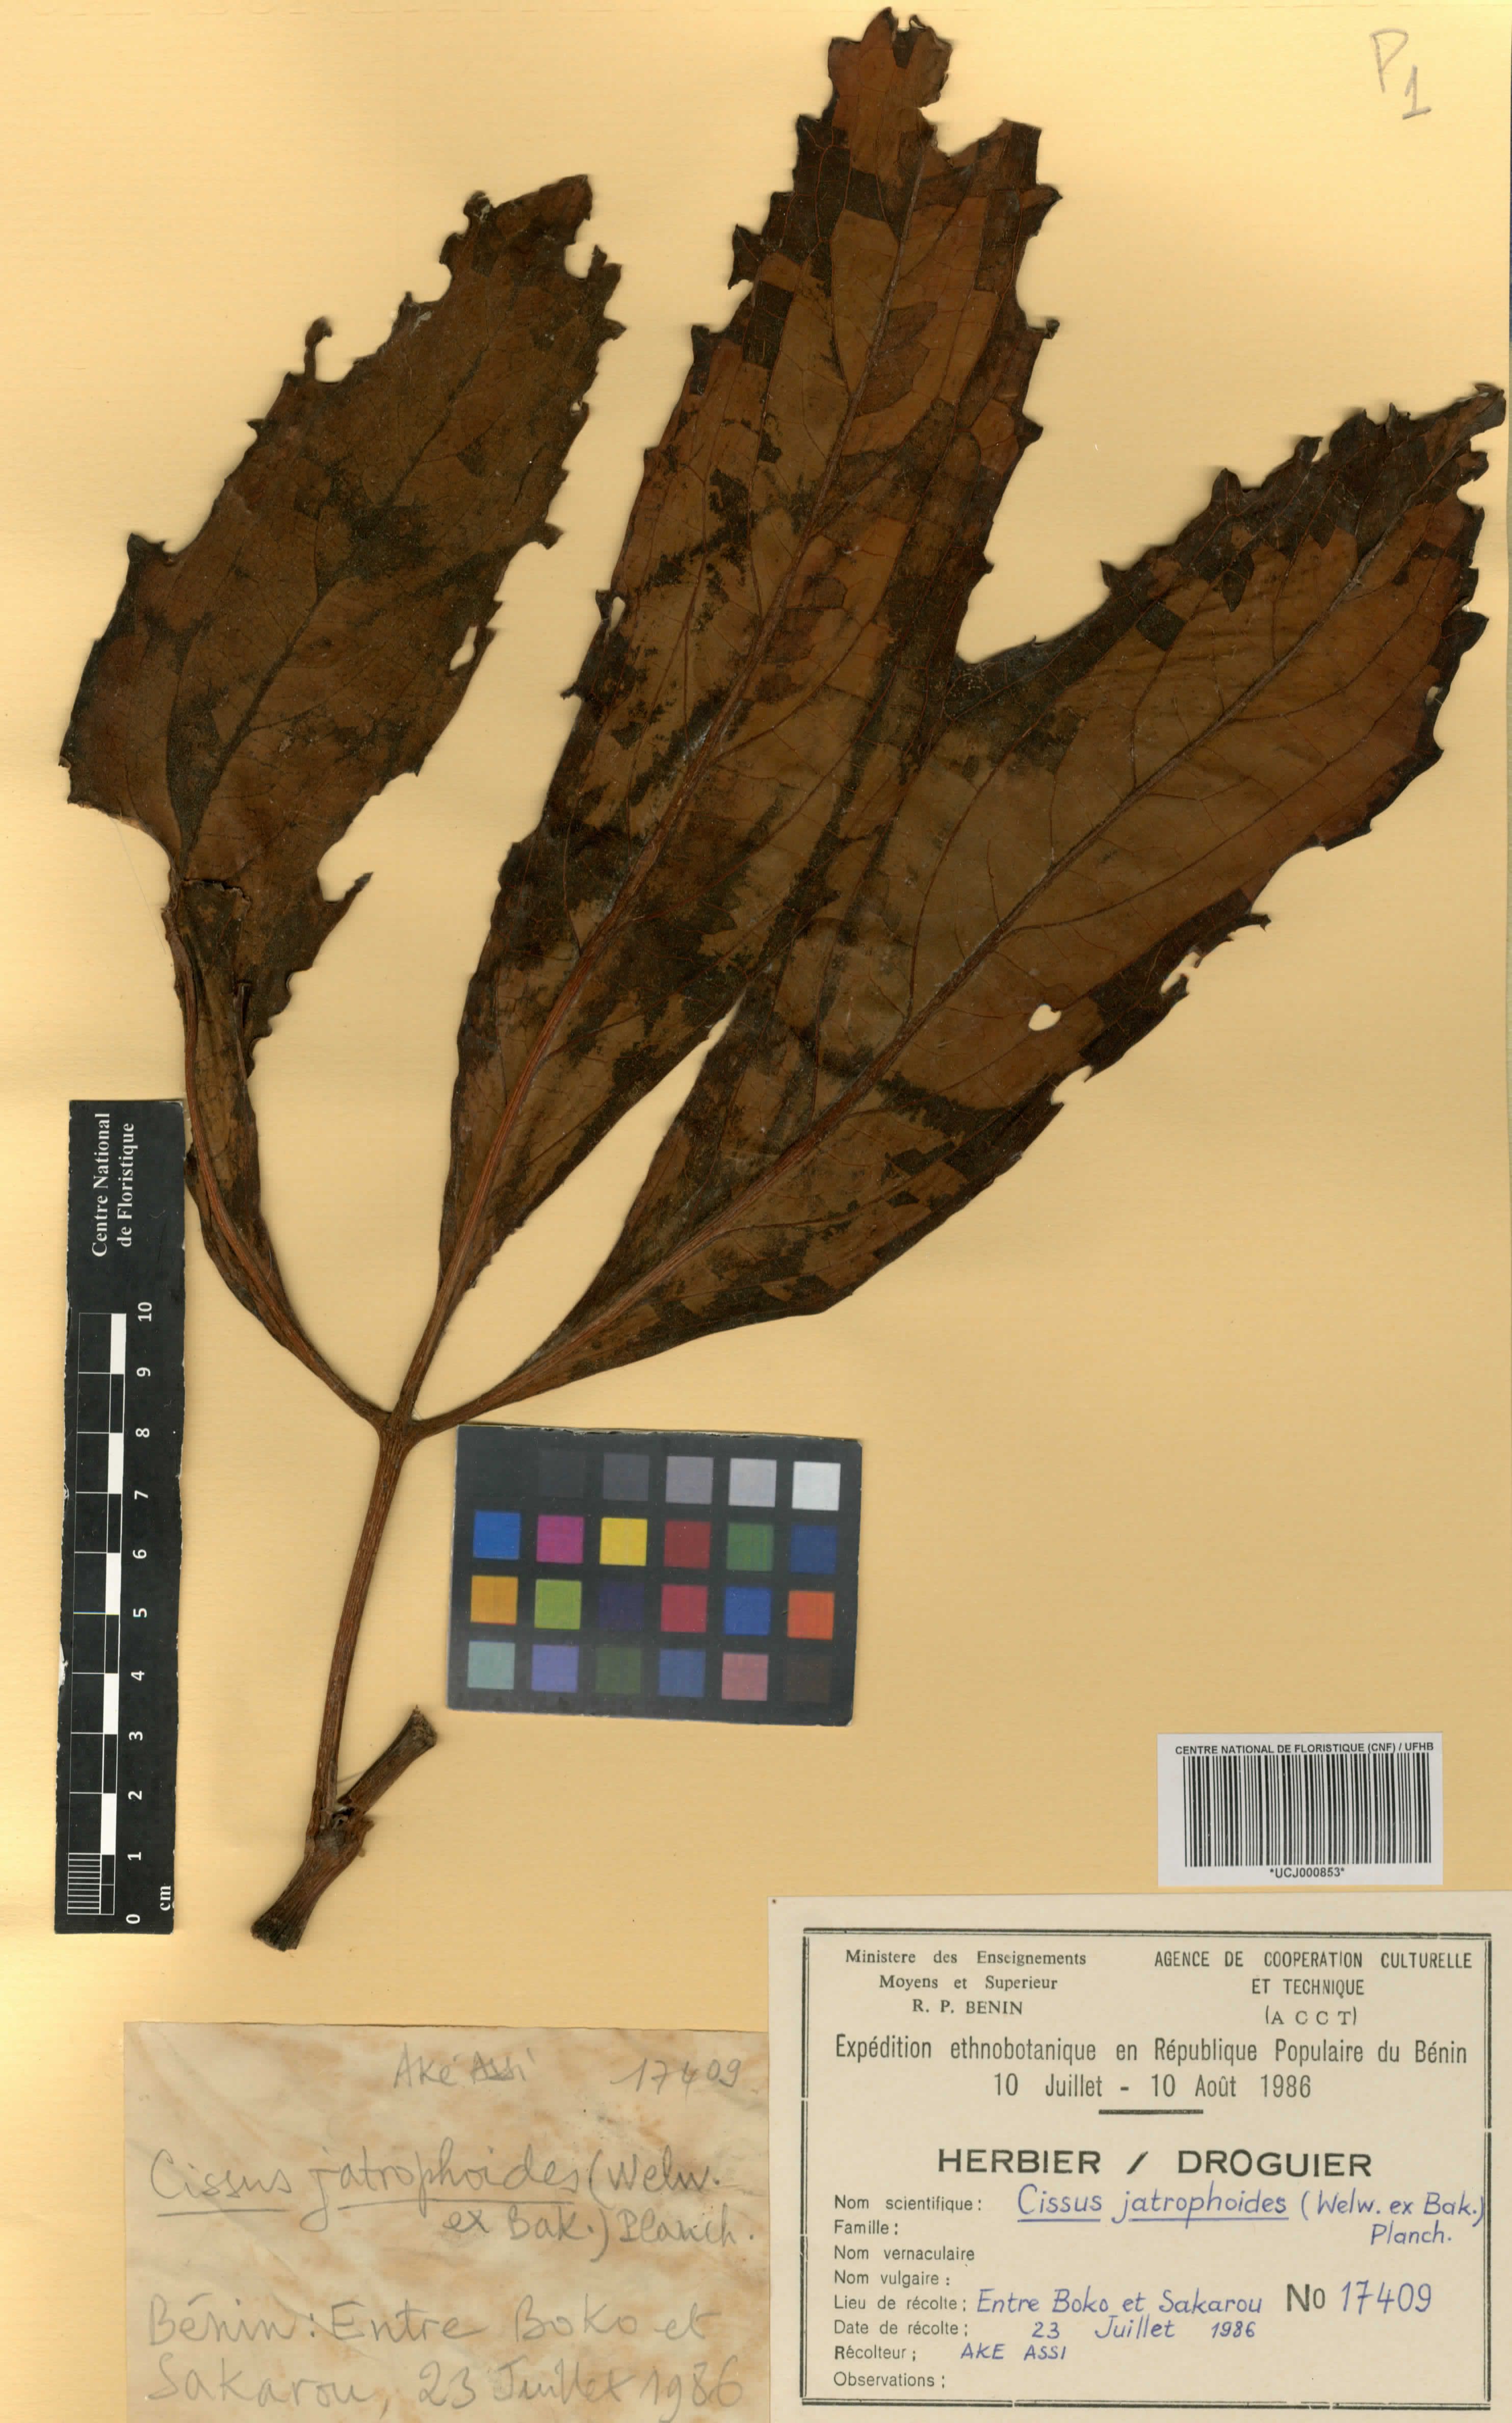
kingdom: Plantae
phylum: Tracheophyta
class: Magnoliopsida
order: Vitales
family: Vitaceae
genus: Cyphostemma
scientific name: Cyphostemma junceum
